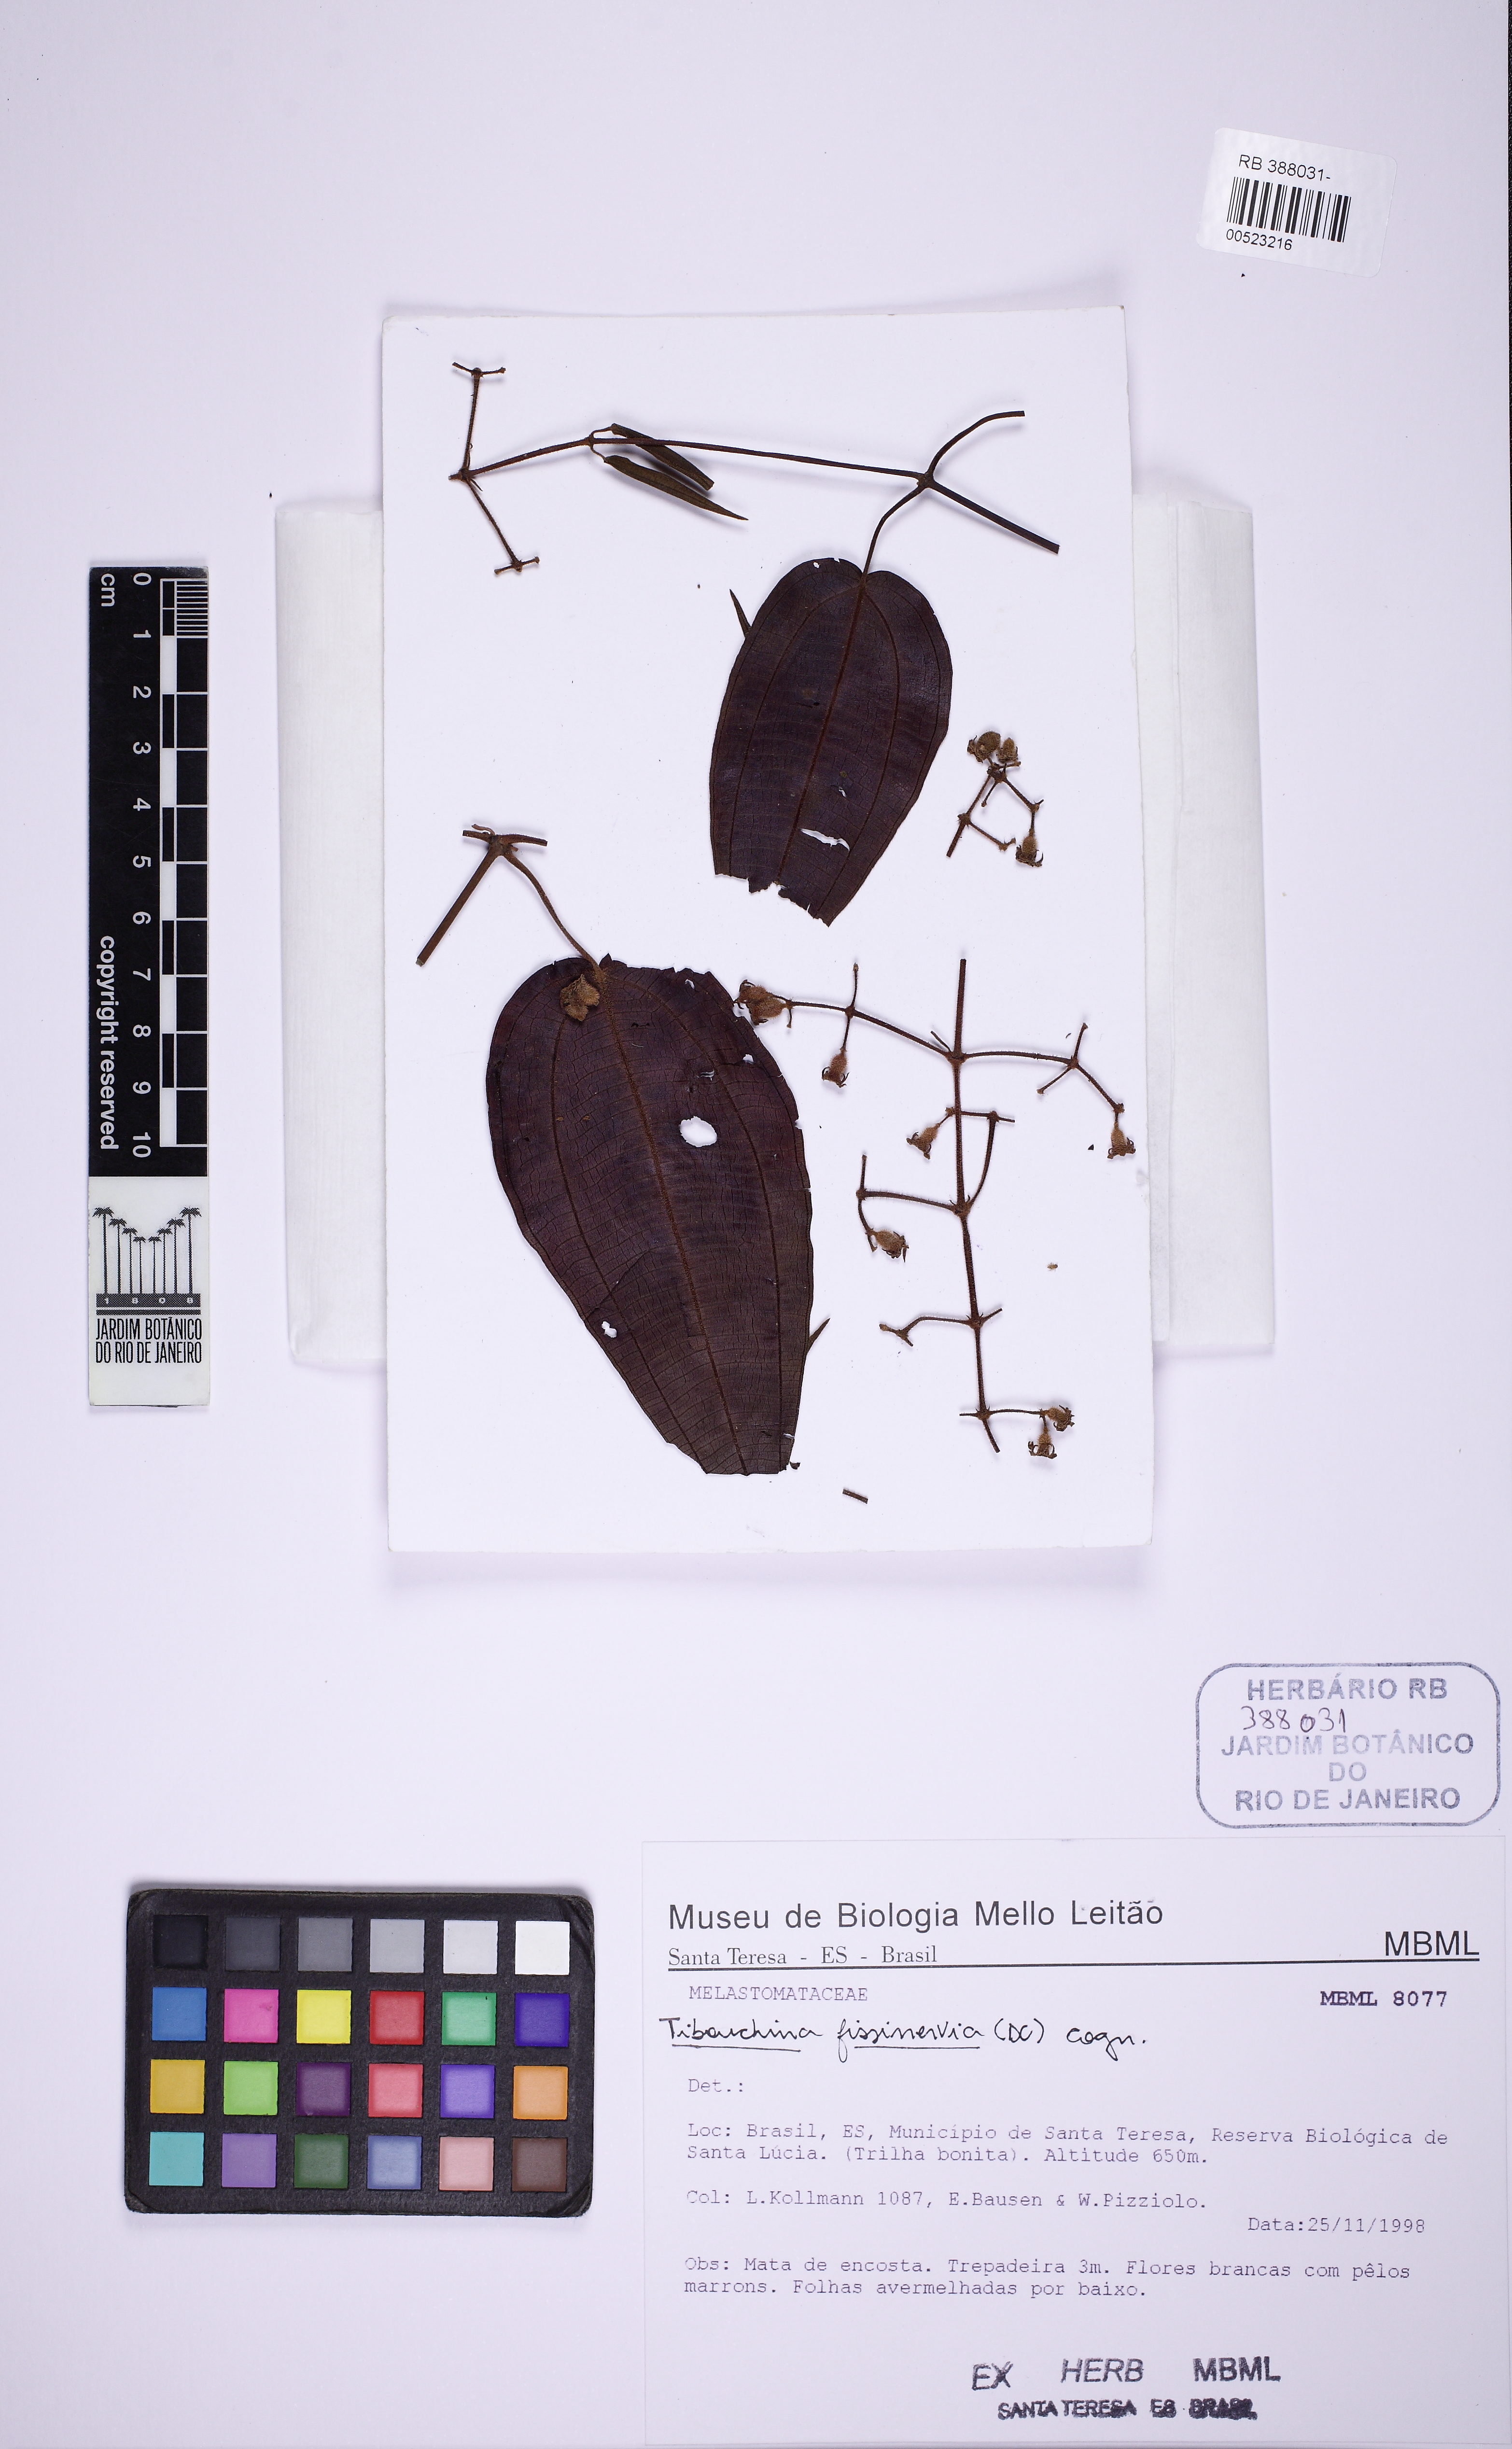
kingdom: Plantae
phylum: Tracheophyta
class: Magnoliopsida
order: Myrtales
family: Melastomataceae
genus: Pleroma
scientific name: Pleroma fissinervium
